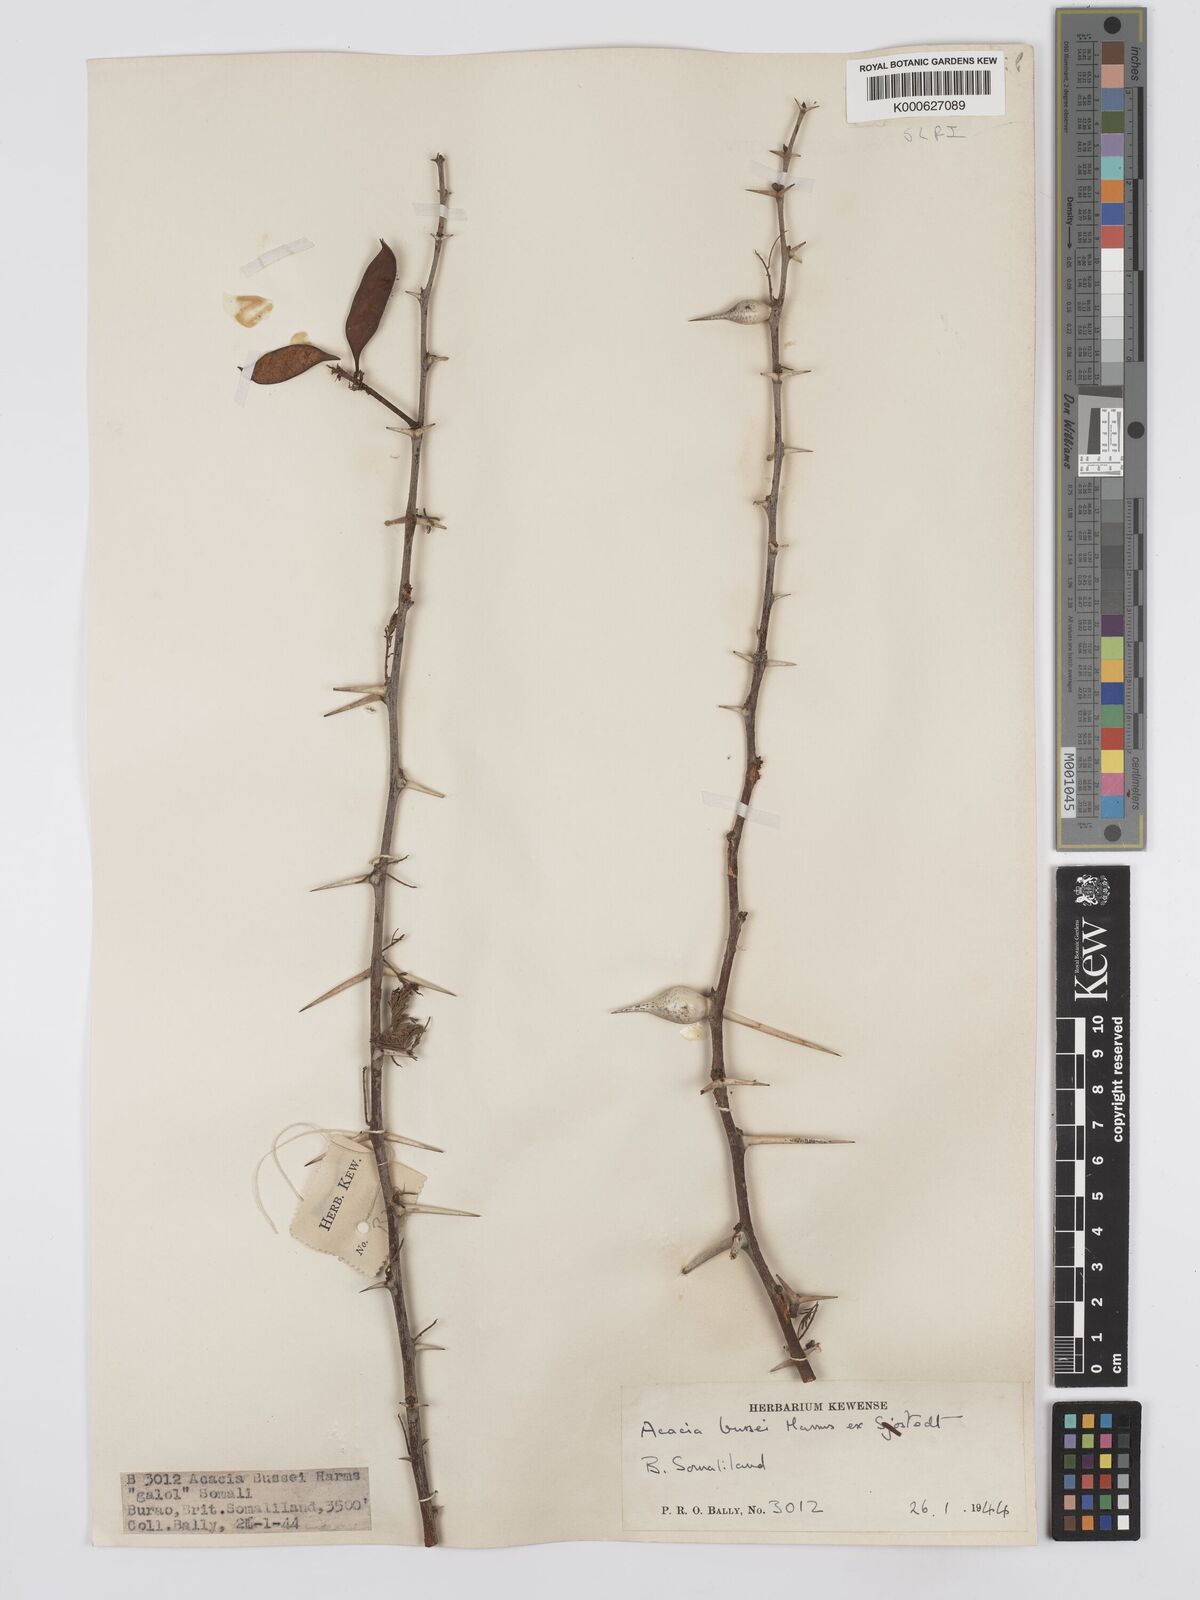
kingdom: Plantae
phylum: Tracheophyta
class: Magnoliopsida
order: Fabales
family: Fabaceae
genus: Vachellia
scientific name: Vachellia bussei
